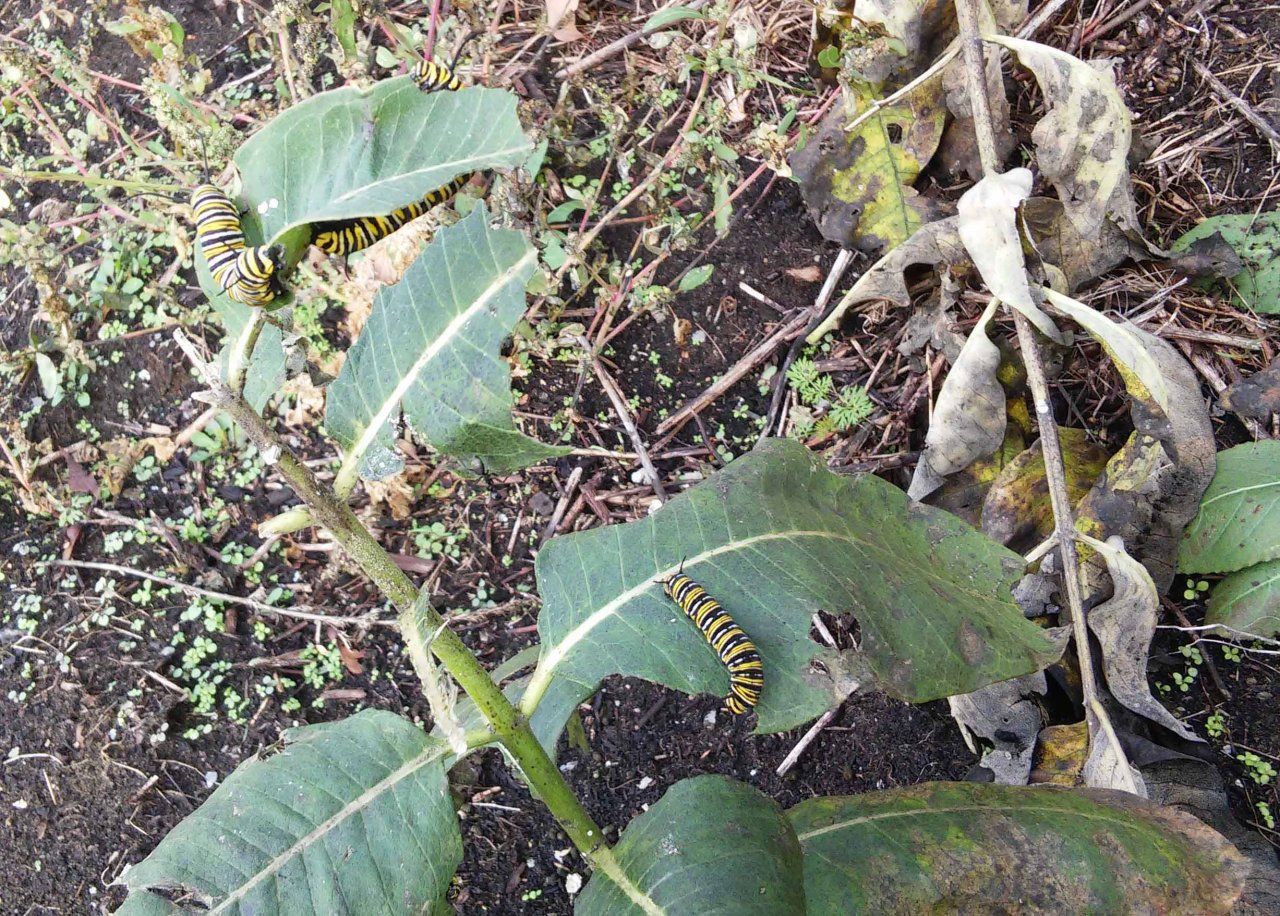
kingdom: Animalia
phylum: Arthropoda
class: Insecta
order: Lepidoptera
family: Nymphalidae
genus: Danaus
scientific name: Danaus plexippus
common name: Monarch
